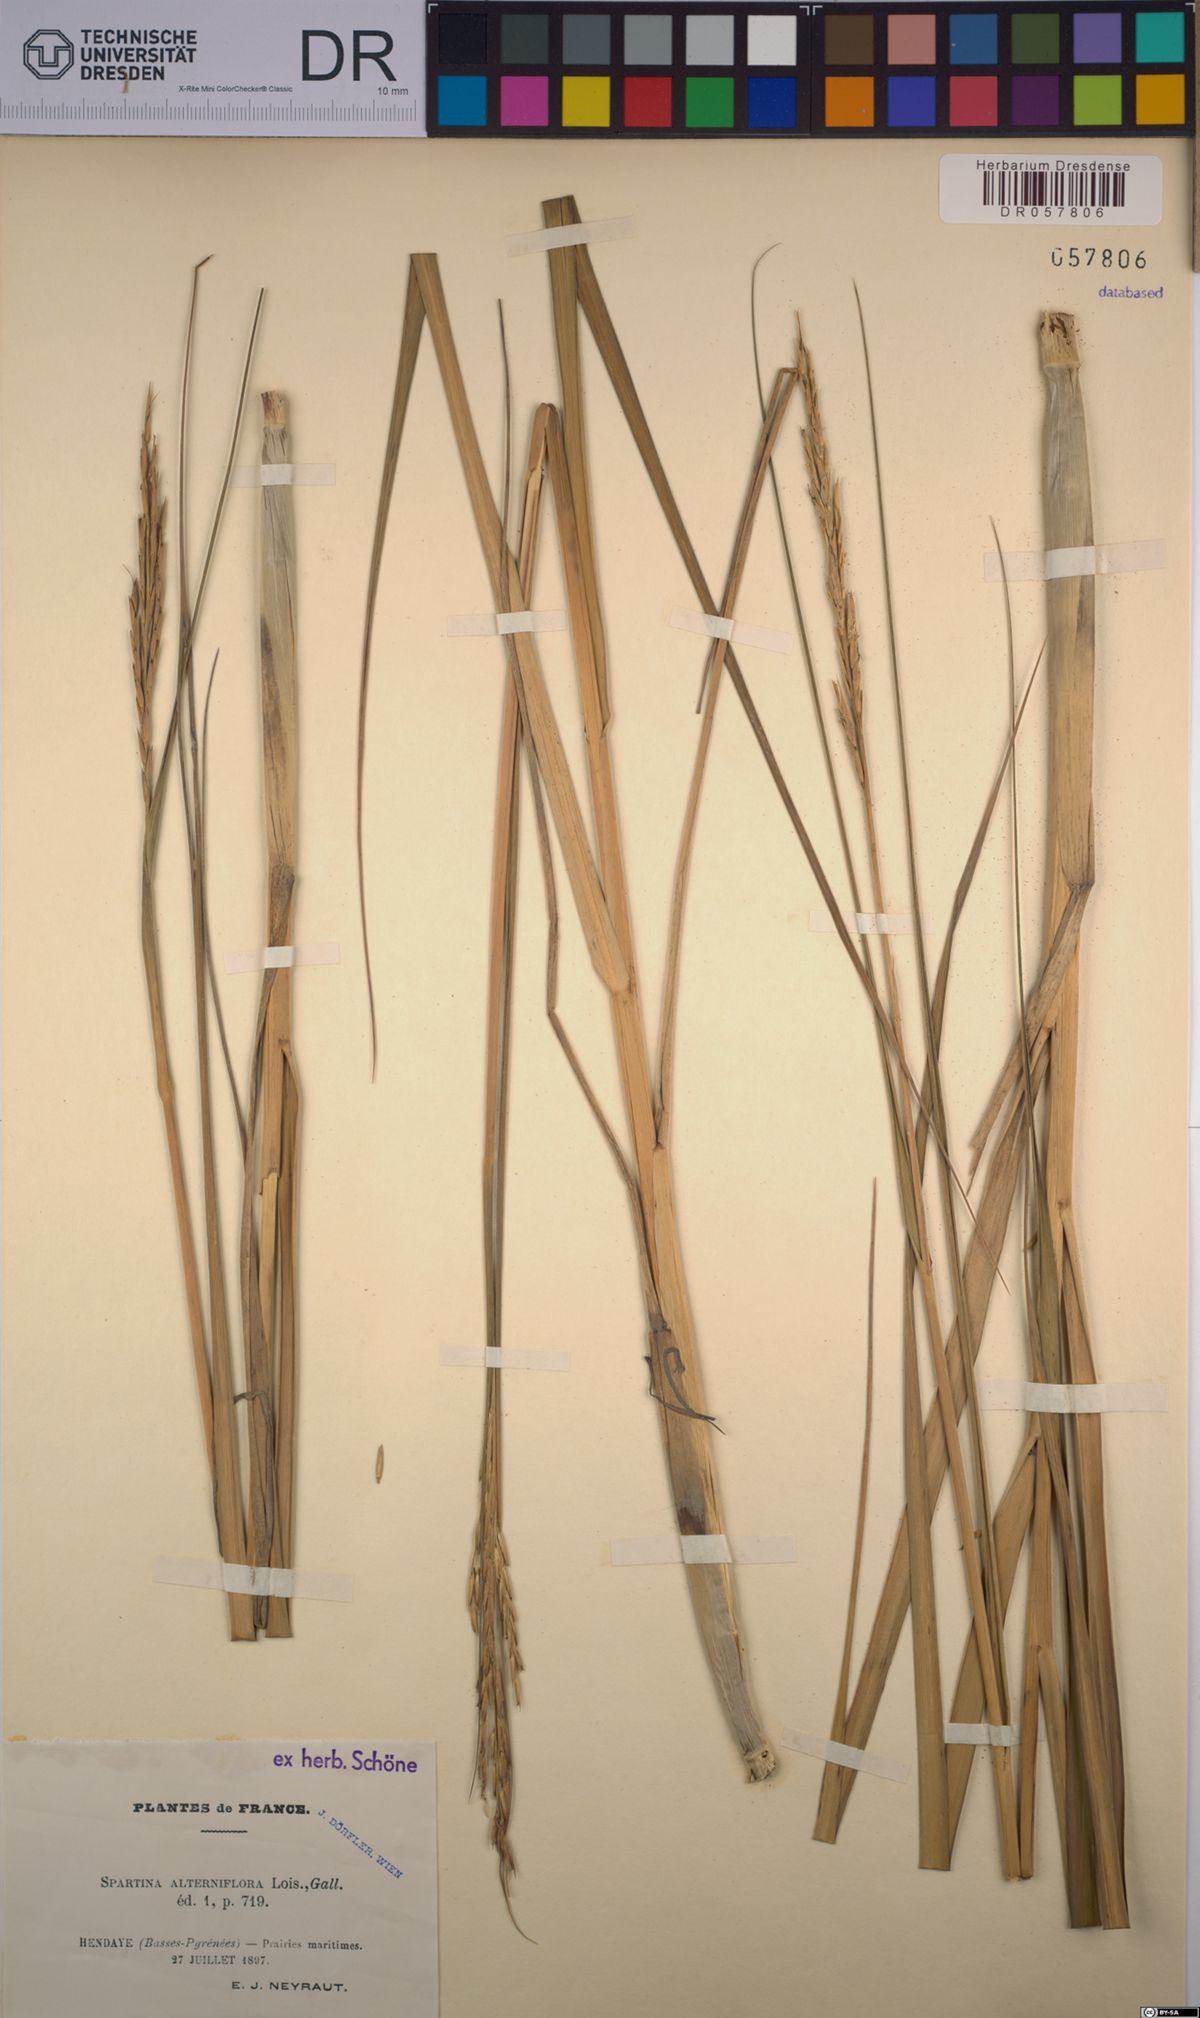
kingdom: Plantae
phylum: Tracheophyta
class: Liliopsida
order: Poales
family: Poaceae
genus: Sporobolus
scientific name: Sporobolus alterniflorus
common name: Atlantic cordgrass
